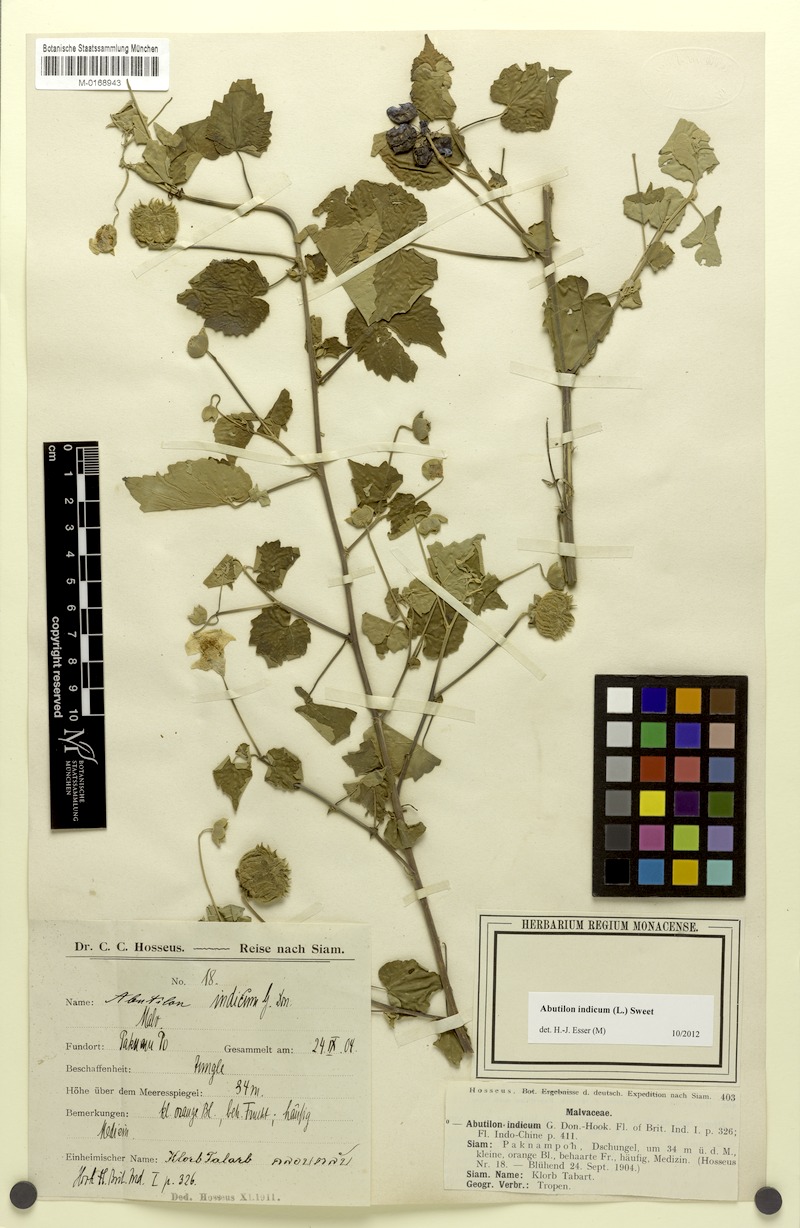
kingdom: Plantae
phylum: Tracheophyta
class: Magnoliopsida
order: Malvales
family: Malvaceae
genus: Abutilon
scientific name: Abutilon indicum
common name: Indian abutilon
